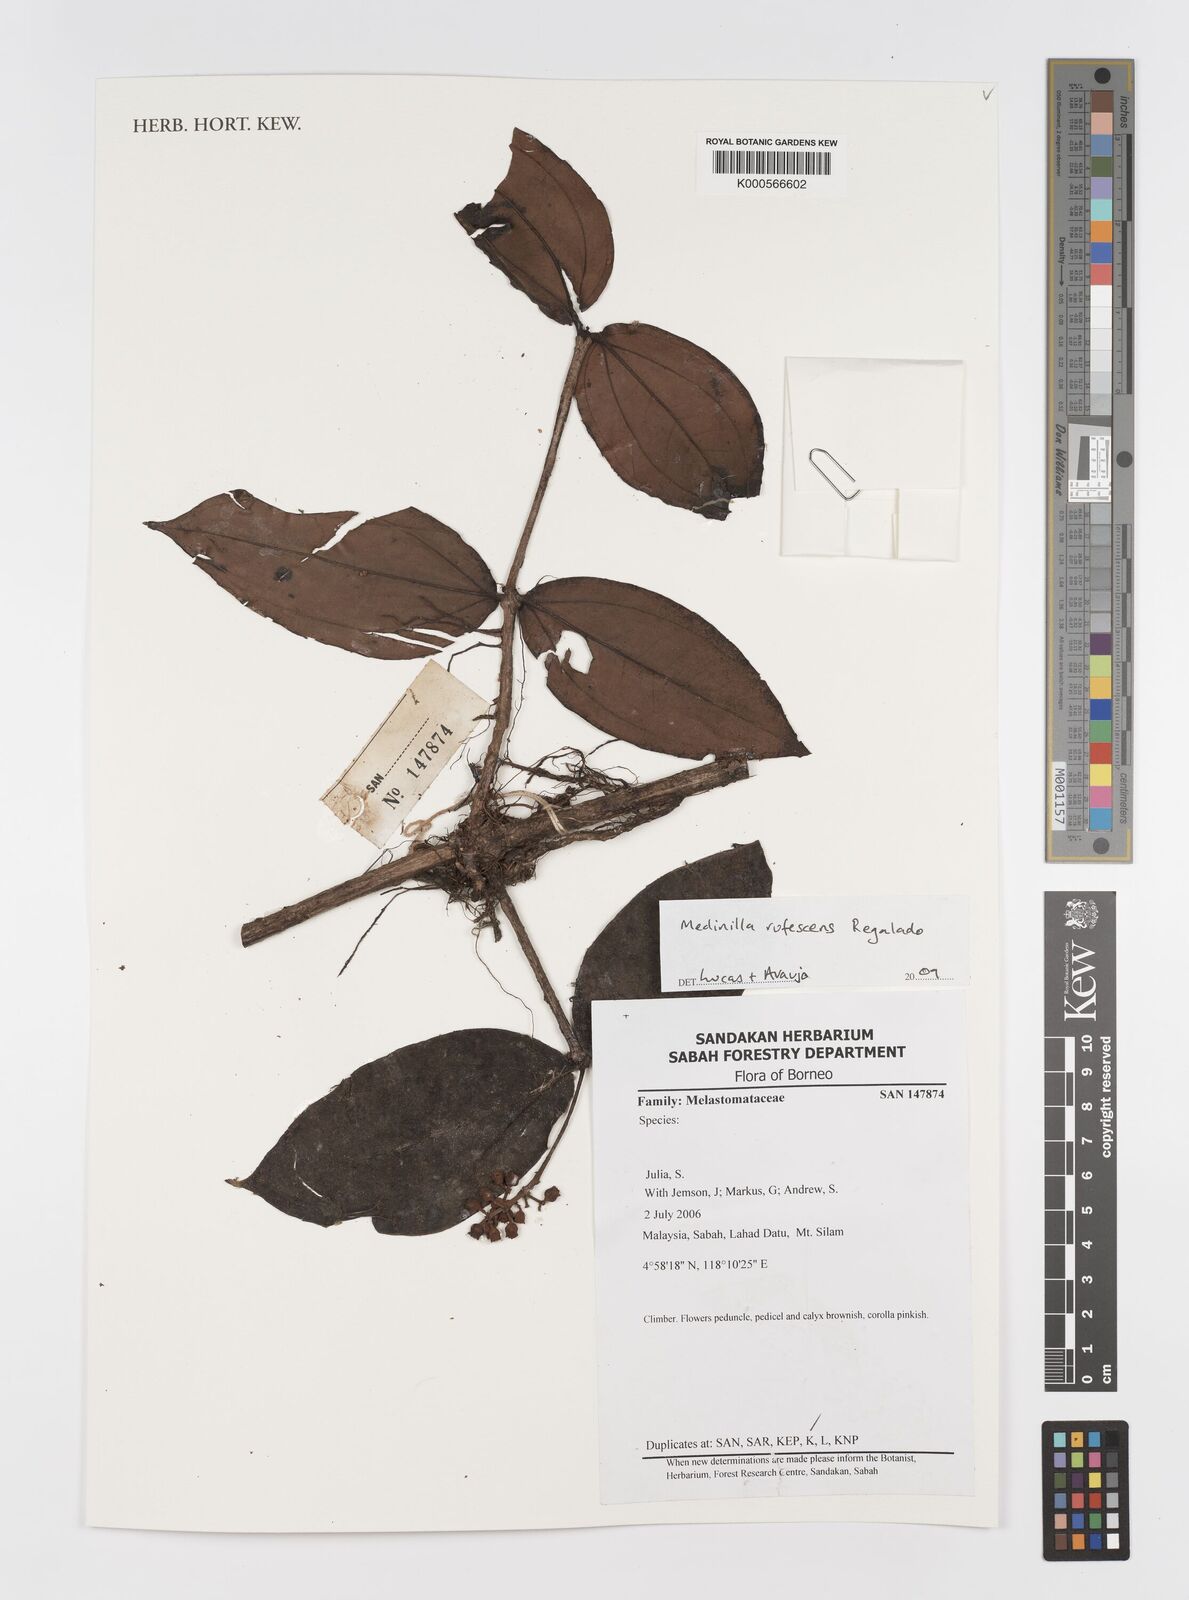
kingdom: Plantae
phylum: Tracheophyta
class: Magnoliopsida
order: Myrtales
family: Melastomataceae
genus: Medinilla
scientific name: Medinilla rufescens
